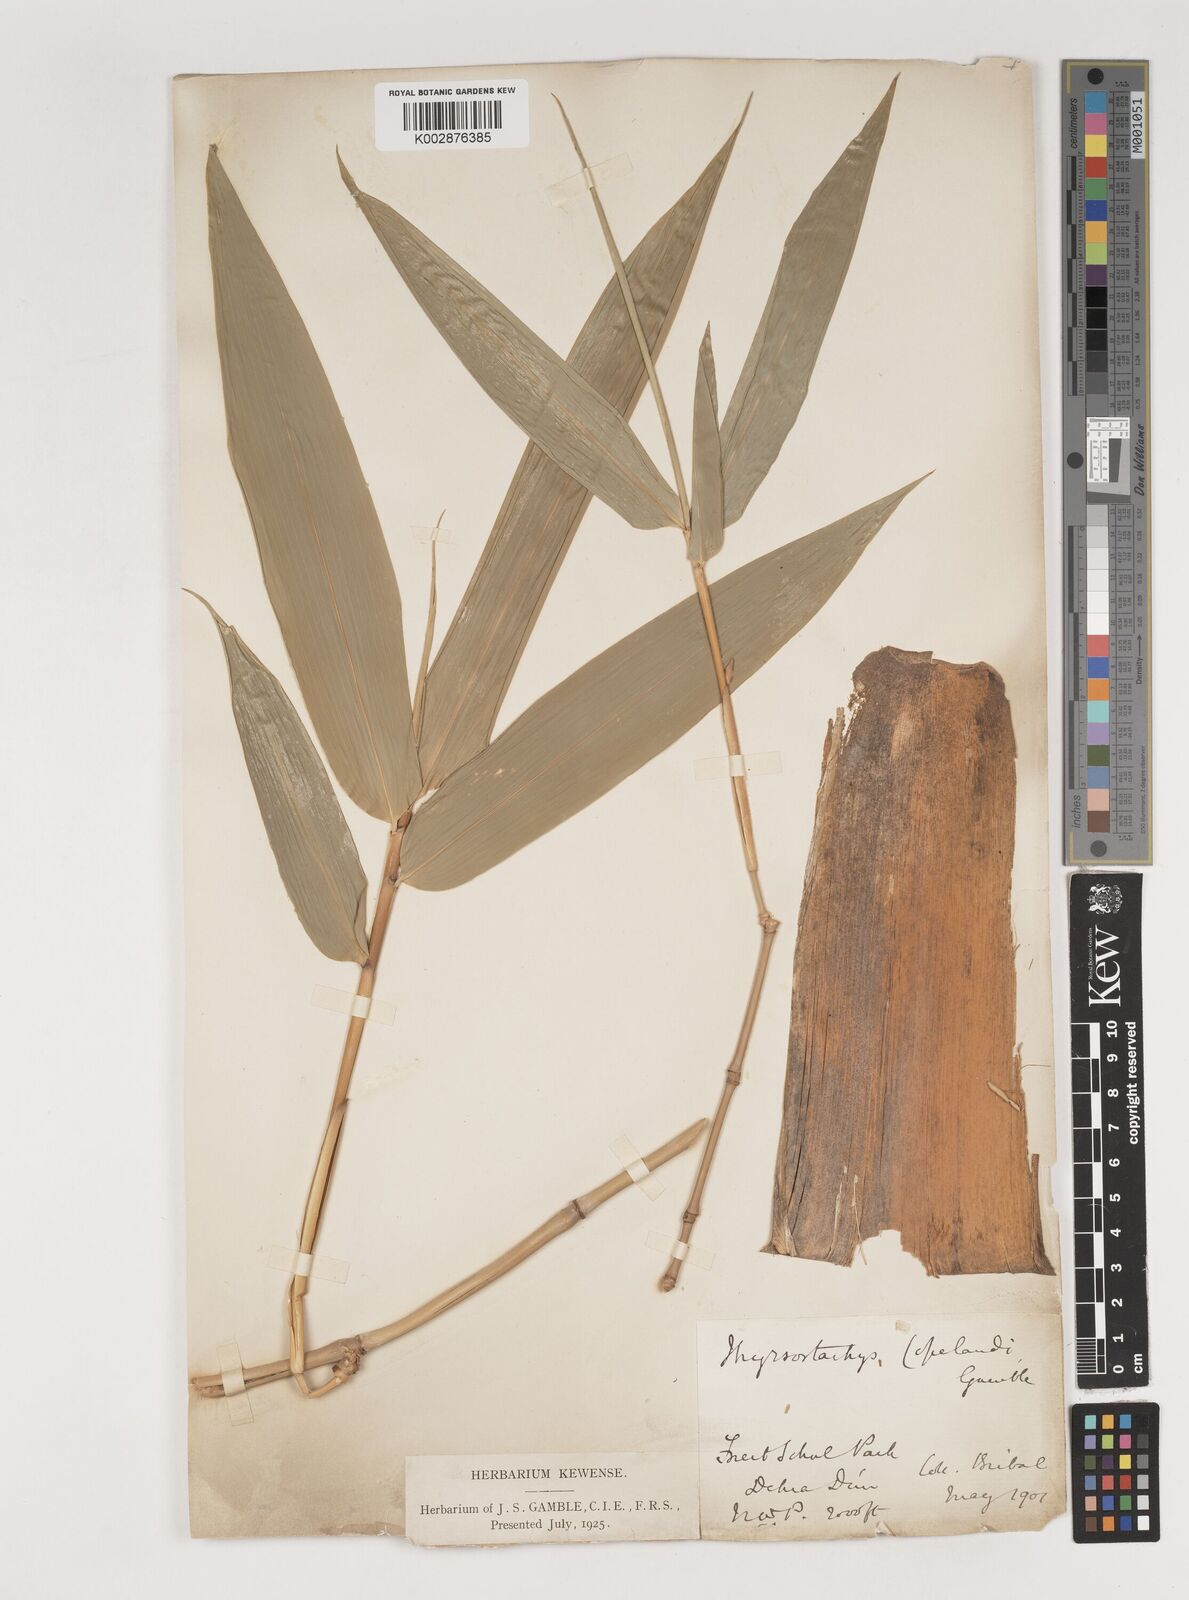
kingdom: Plantae
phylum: Tracheophyta
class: Liliopsida
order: Poales
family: Poaceae
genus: Bambusa
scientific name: Bambusa copelandii
